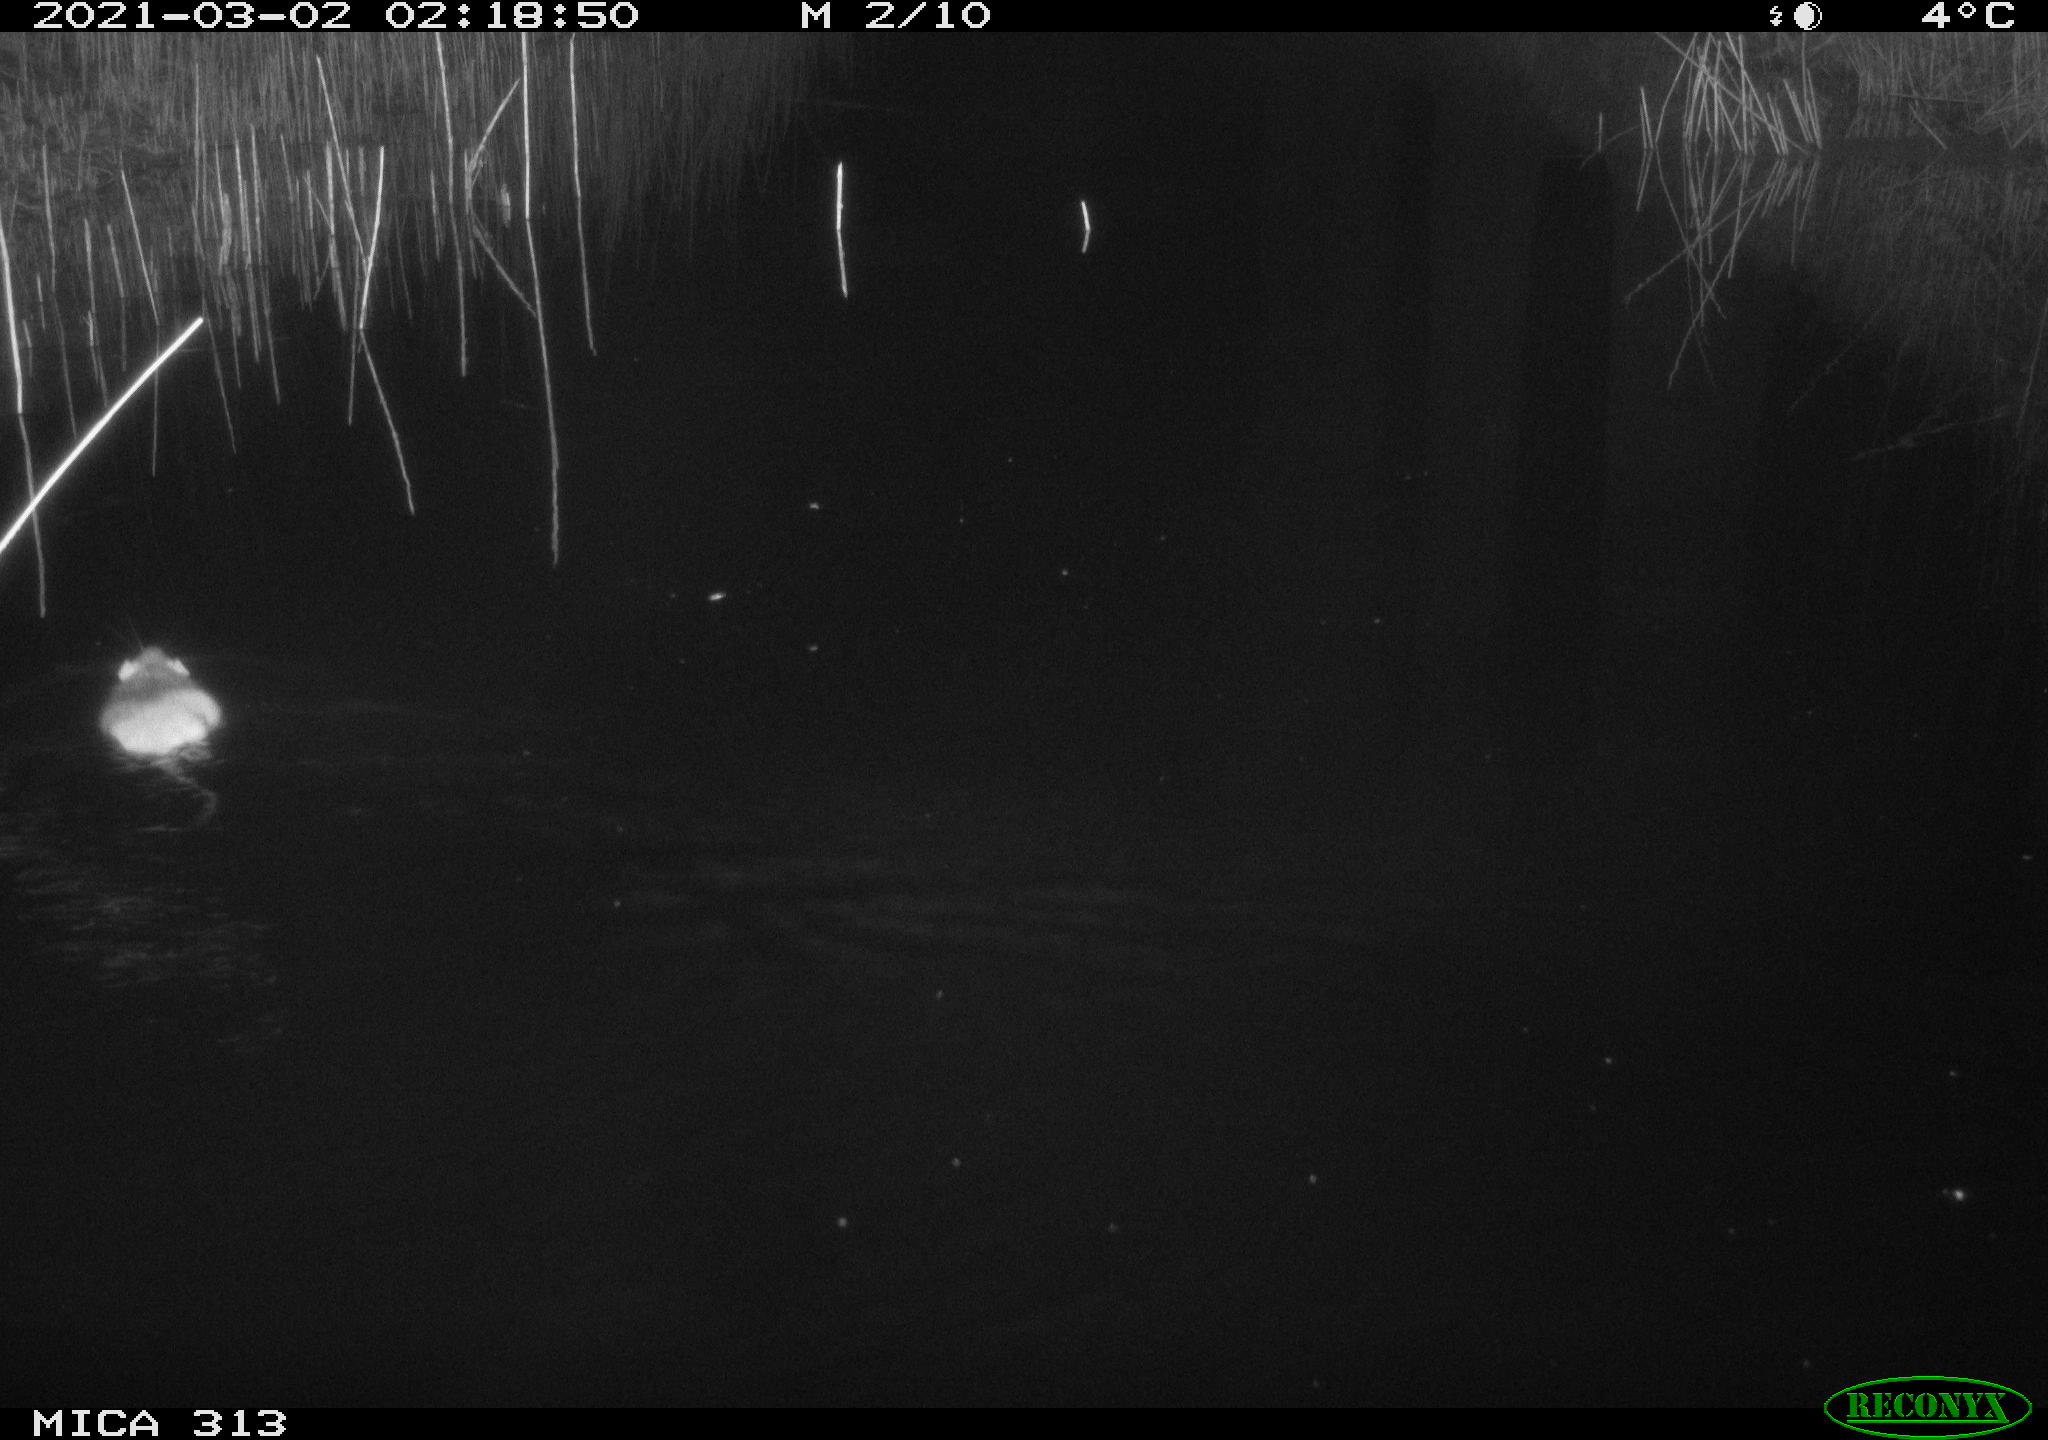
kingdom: Animalia
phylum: Chordata
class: Mammalia
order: Rodentia
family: Muridae
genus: Rattus
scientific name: Rattus norvegicus
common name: Brown rat
